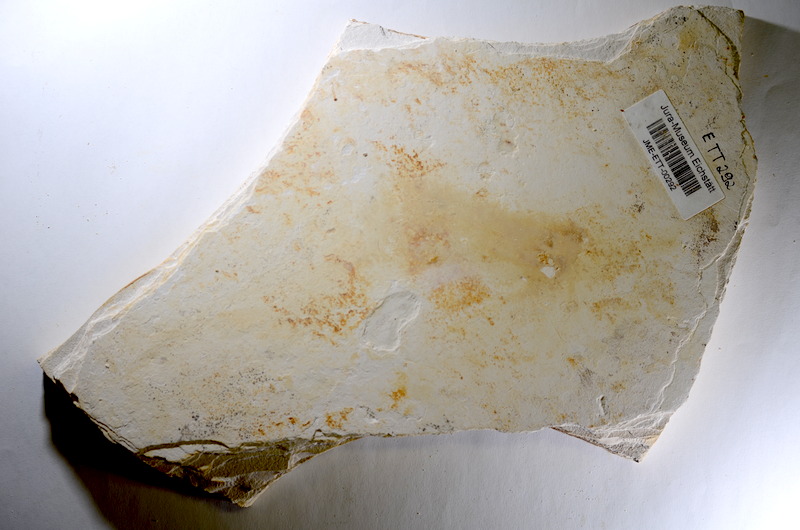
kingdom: Animalia
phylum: Chordata
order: Salmoniformes
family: Orthogonikleithridae
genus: Orthogonikleithrus
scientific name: Orthogonikleithrus hoelli
